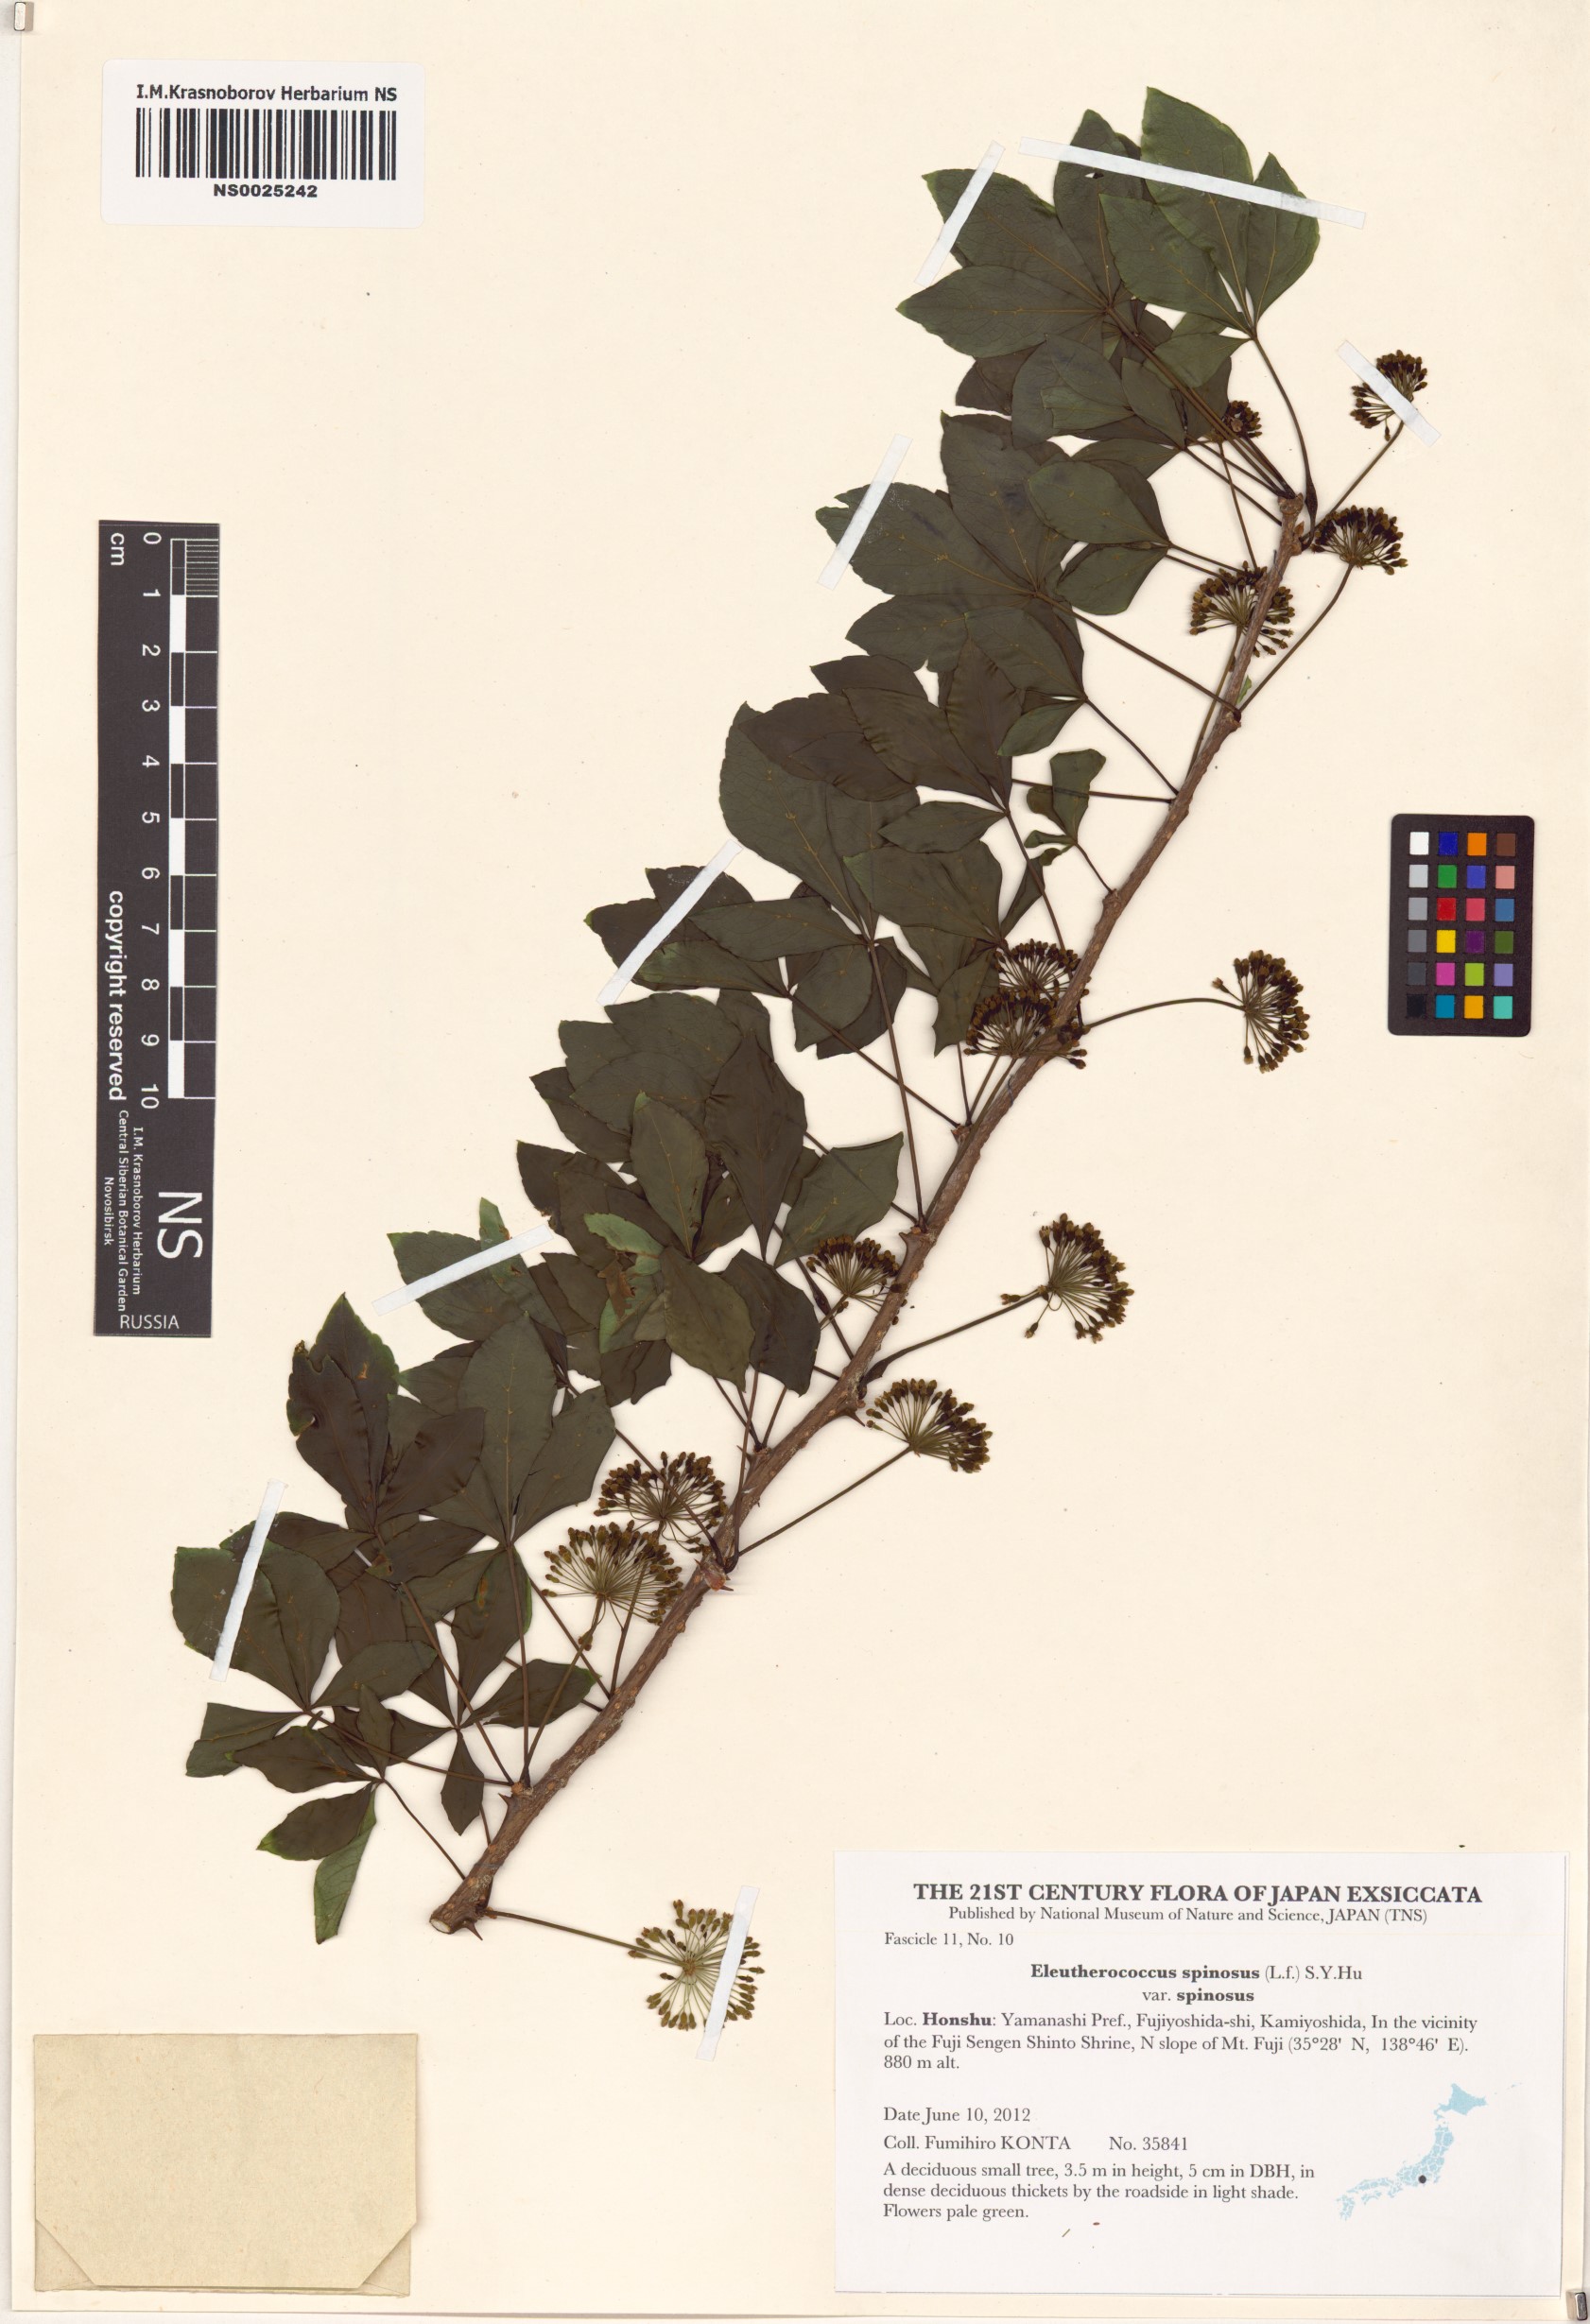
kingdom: Plantae
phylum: Tracheophyta
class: Magnoliopsida
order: Apiales
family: Araliaceae
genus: Eleutherococcus
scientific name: Eleutherococcus spinosus
